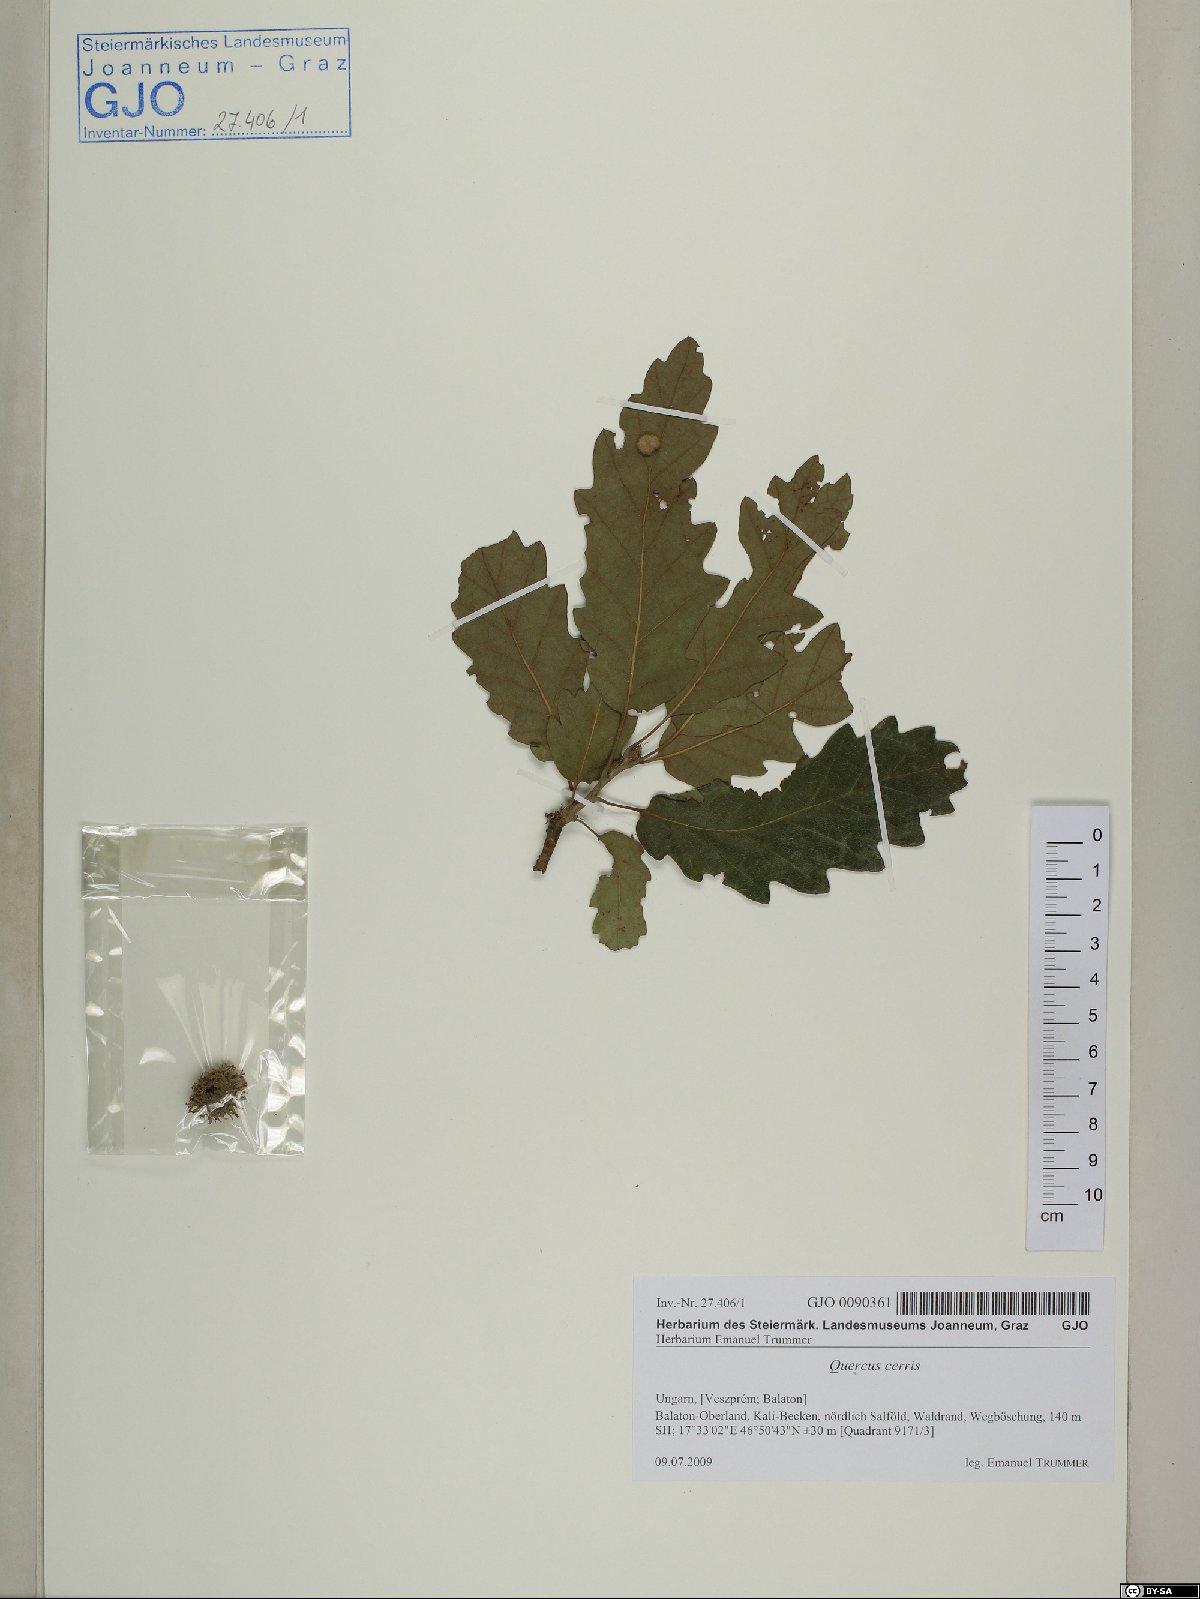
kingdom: Plantae
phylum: Tracheophyta
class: Magnoliopsida
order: Fagales
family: Fagaceae
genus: Quercus
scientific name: Quercus cerris
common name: Turkey oak
